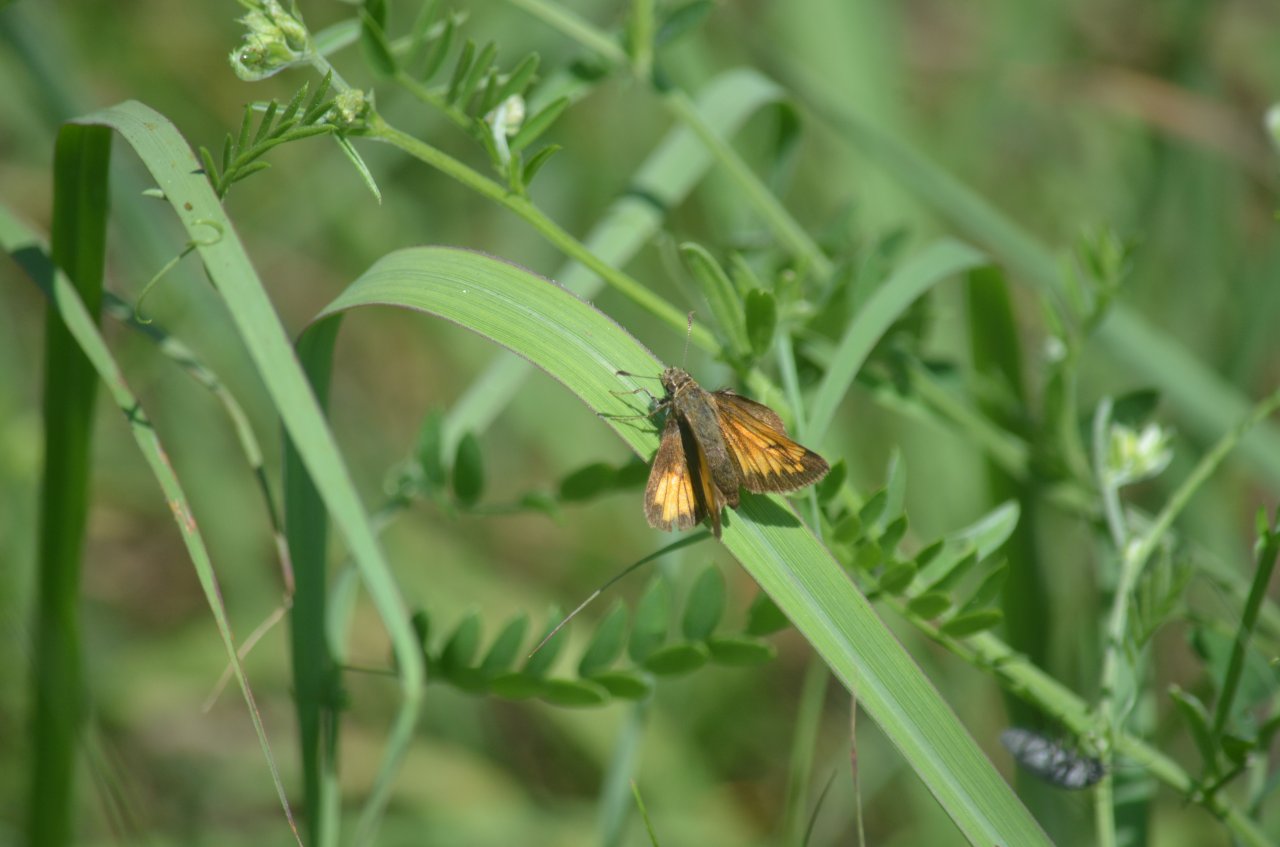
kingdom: Animalia
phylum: Arthropoda
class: Insecta
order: Lepidoptera
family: Hesperiidae
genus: Lon
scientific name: Lon hobomok
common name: Hobomok Skipper
